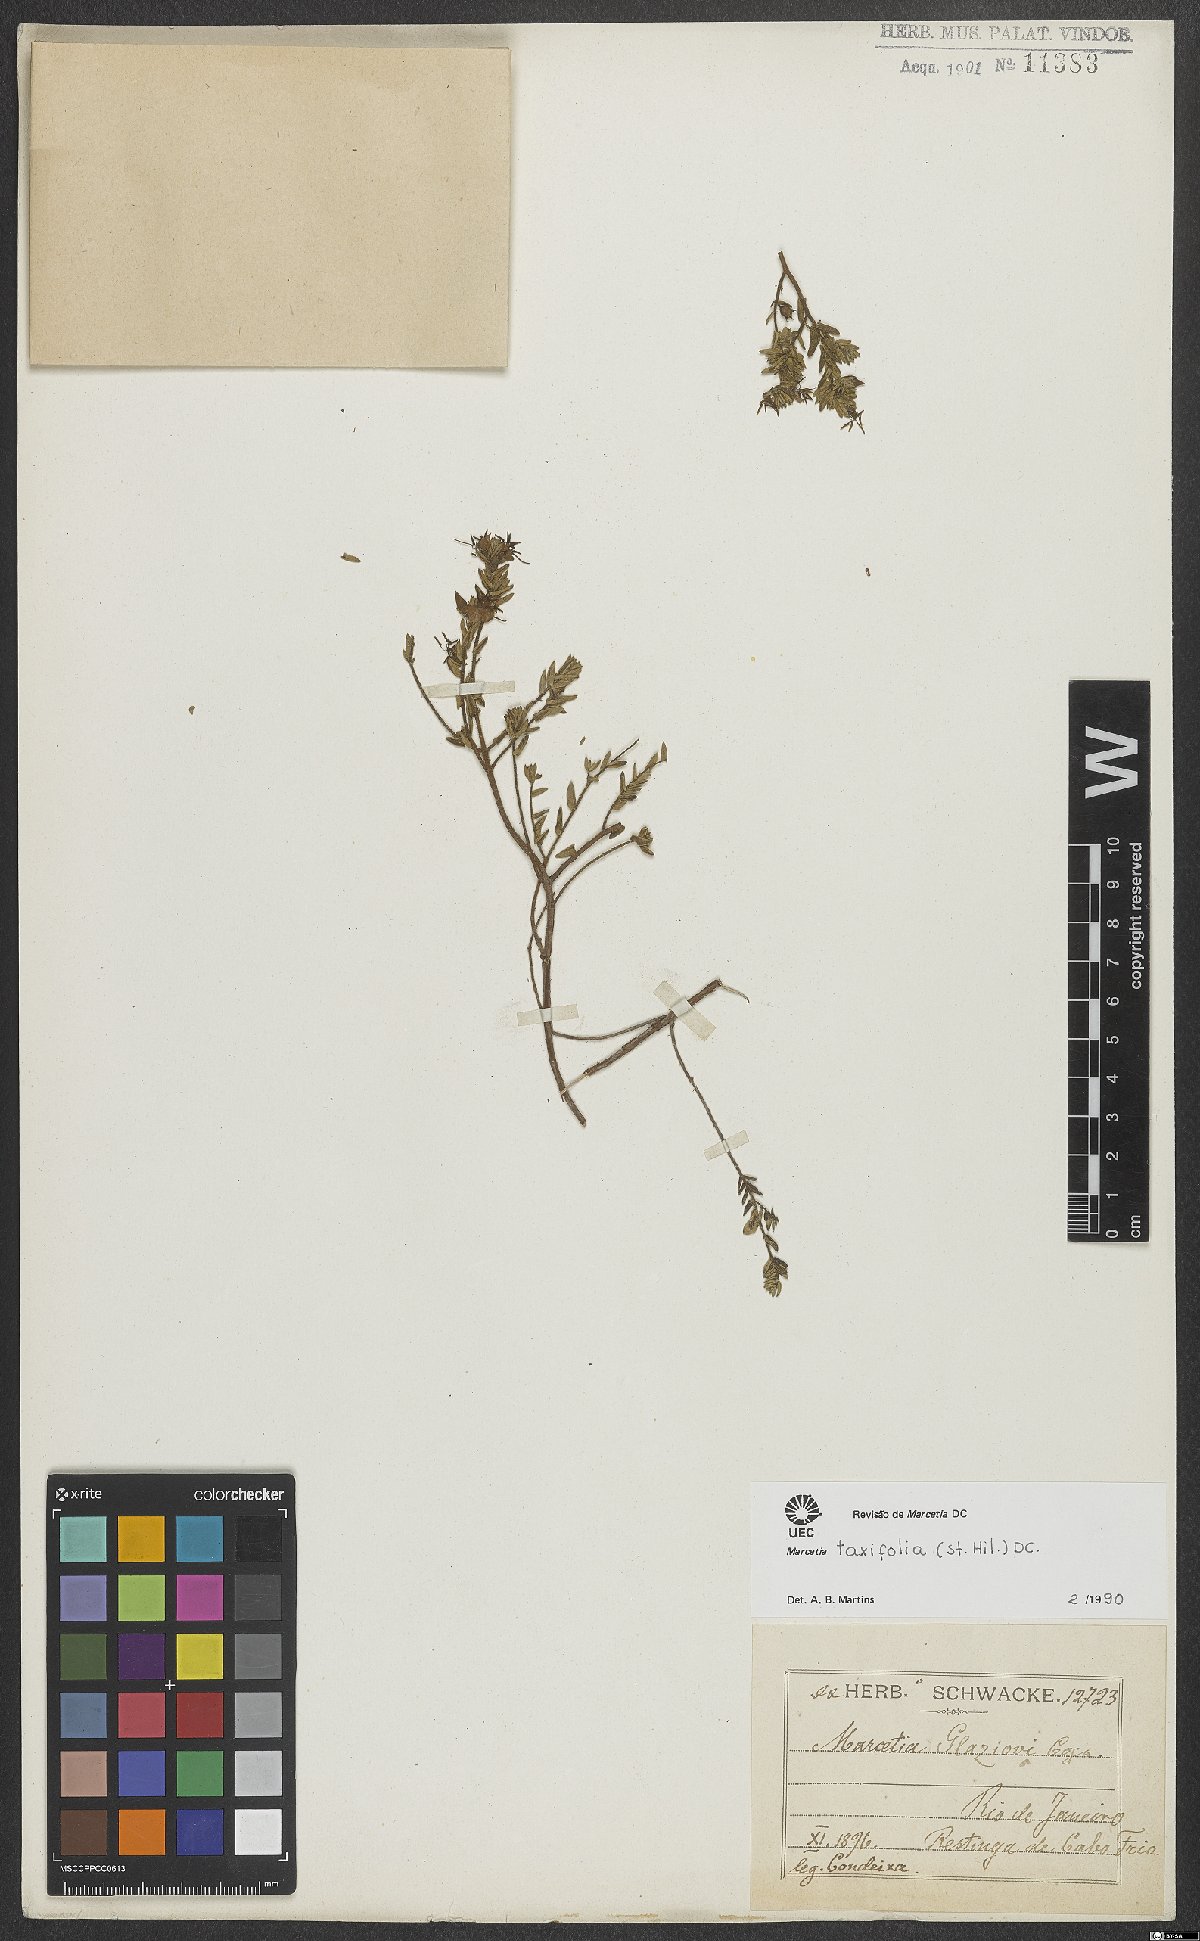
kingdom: Plantae
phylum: Tracheophyta
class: Magnoliopsida
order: Myrtales
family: Melastomataceae
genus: Marcetia
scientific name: Marcetia taxifolia
